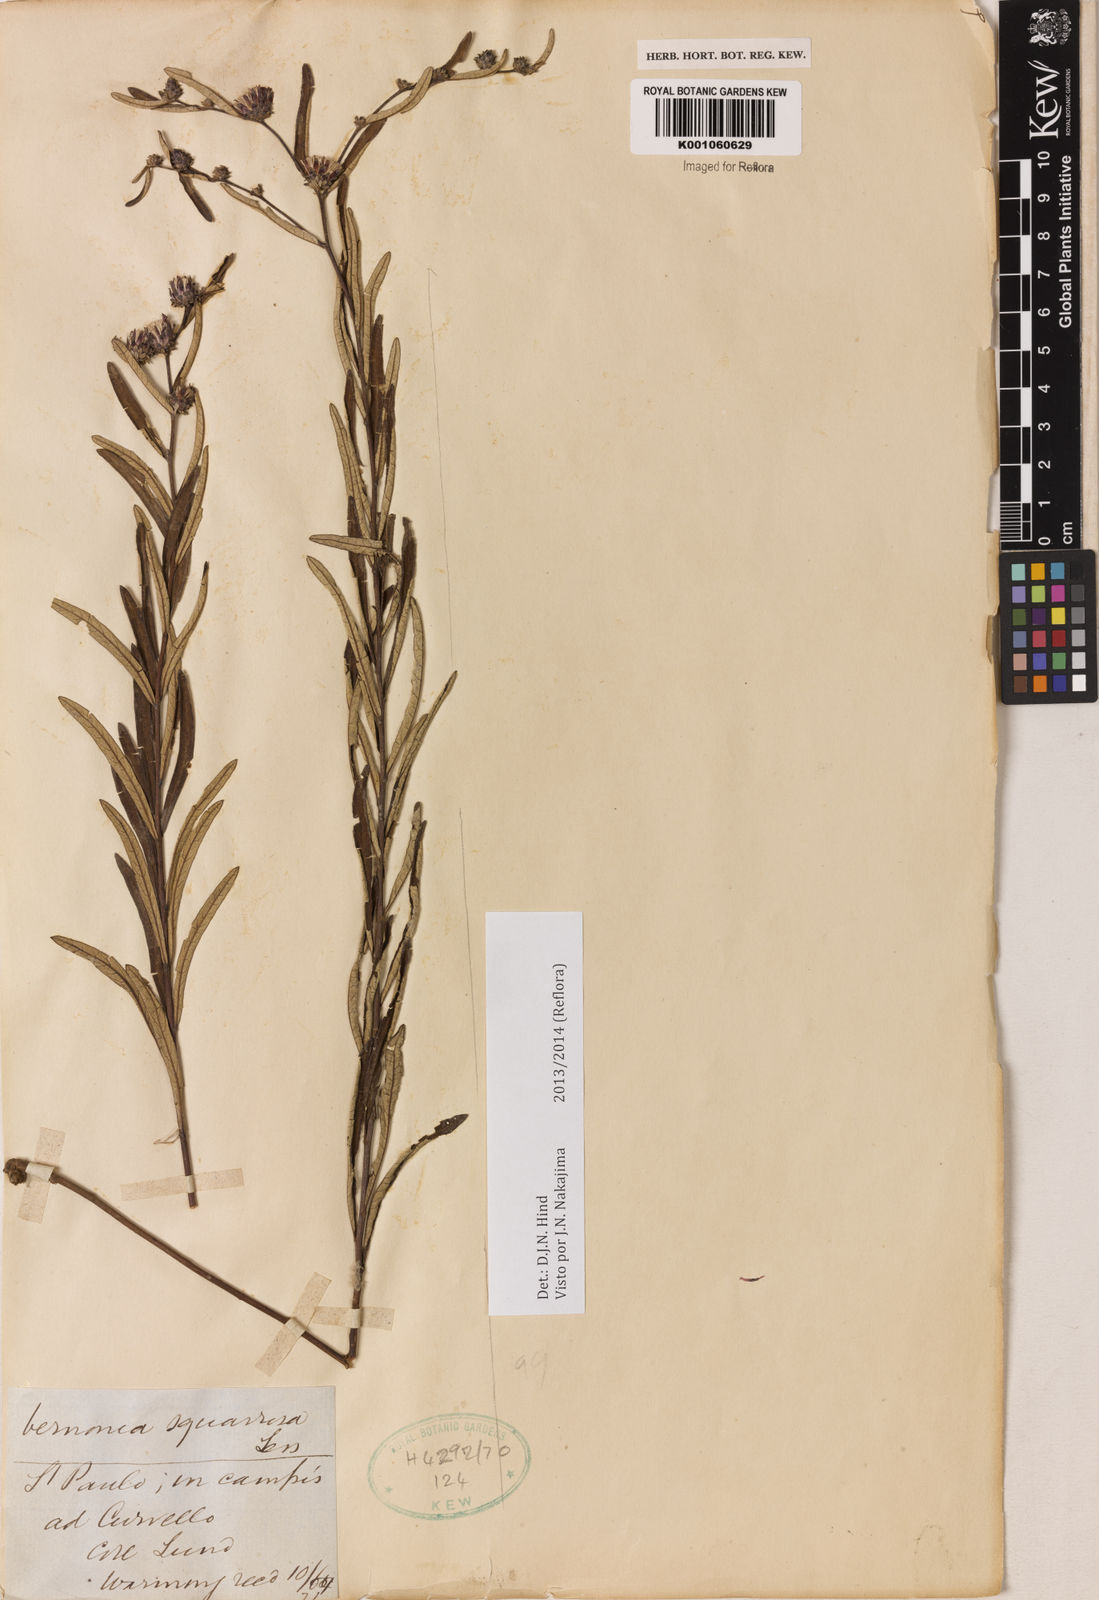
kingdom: Plantae
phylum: Tracheophyta
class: Magnoliopsida
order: Asterales
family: Asteraceae
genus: Lessingianthus
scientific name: Lessingianthus plantaginoides
